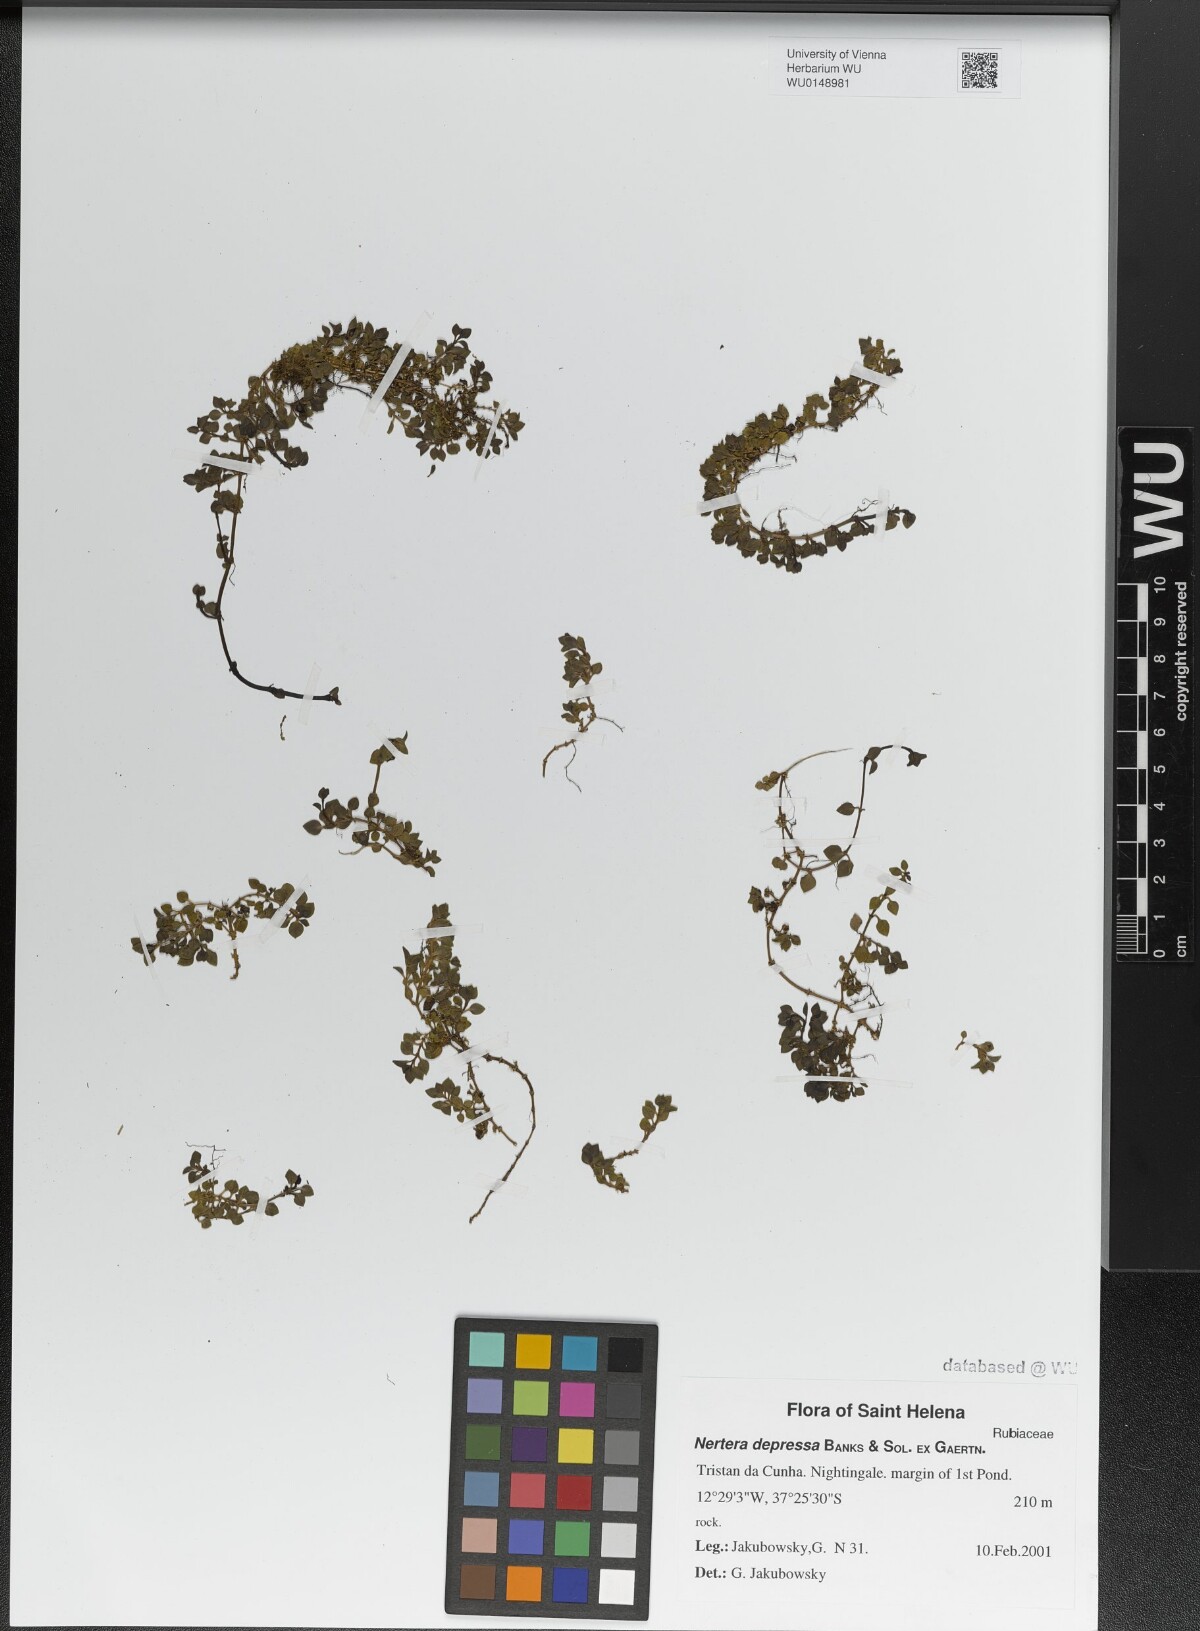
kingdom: Plantae
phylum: Tracheophyta
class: Magnoliopsida
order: Gentianales
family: Rubiaceae
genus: Nertera
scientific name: Nertera granadensis
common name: Beadplant
